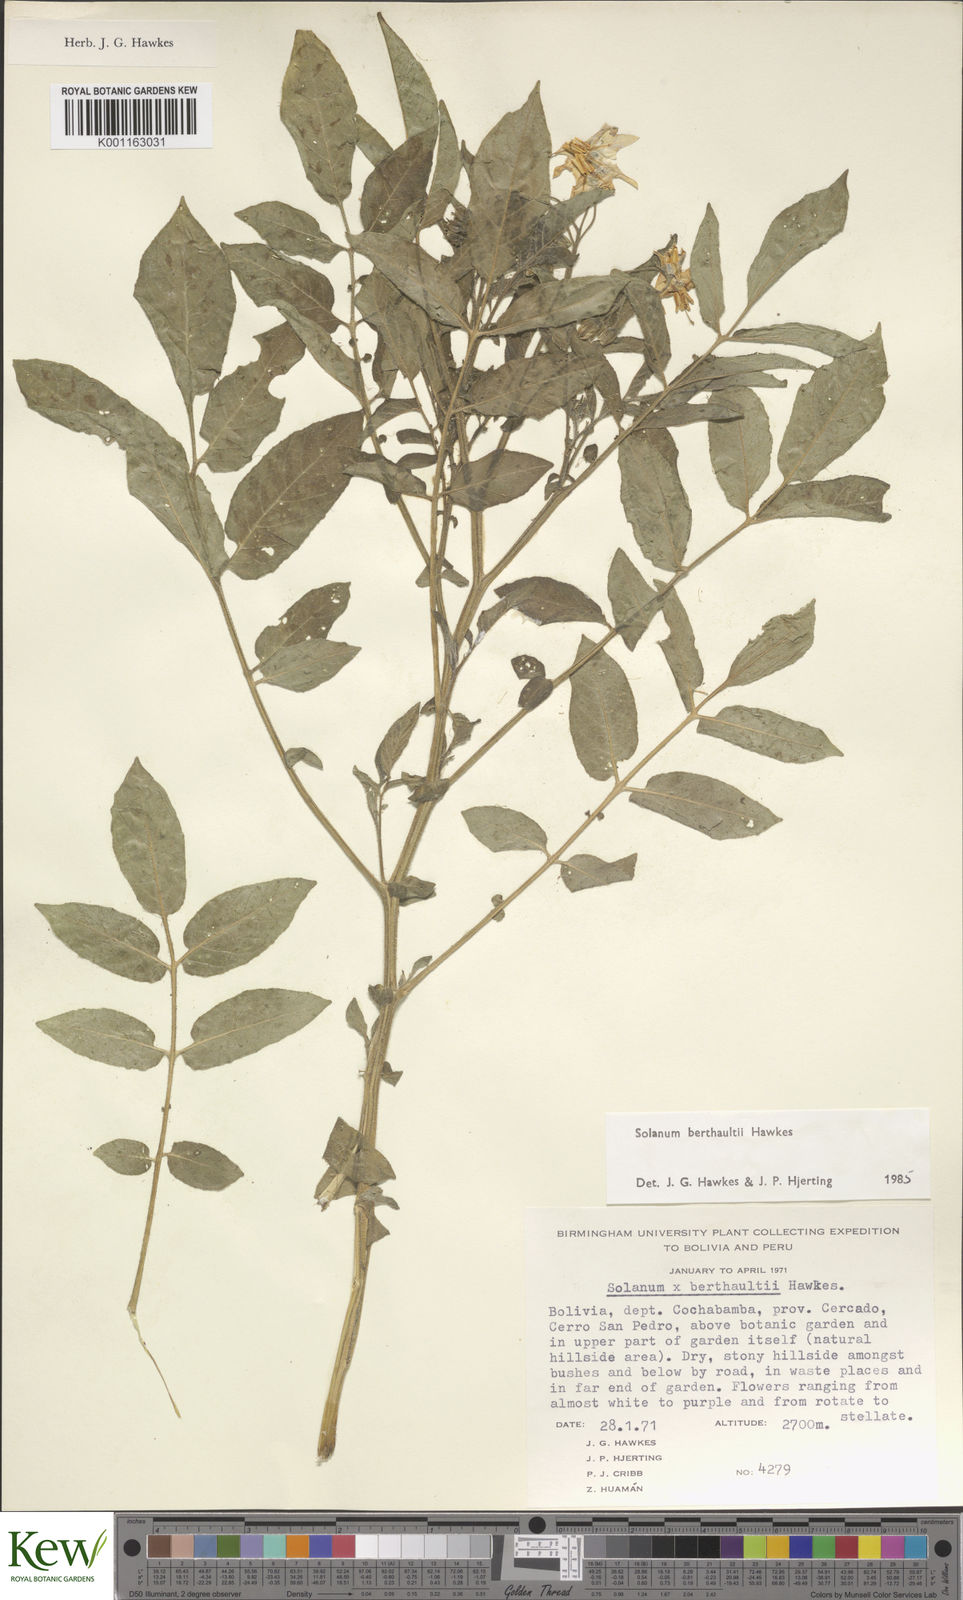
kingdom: Plantae
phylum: Tracheophyta
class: Magnoliopsida
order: Solanales
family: Solanaceae
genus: Solanum
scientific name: Solanum berthaultii
